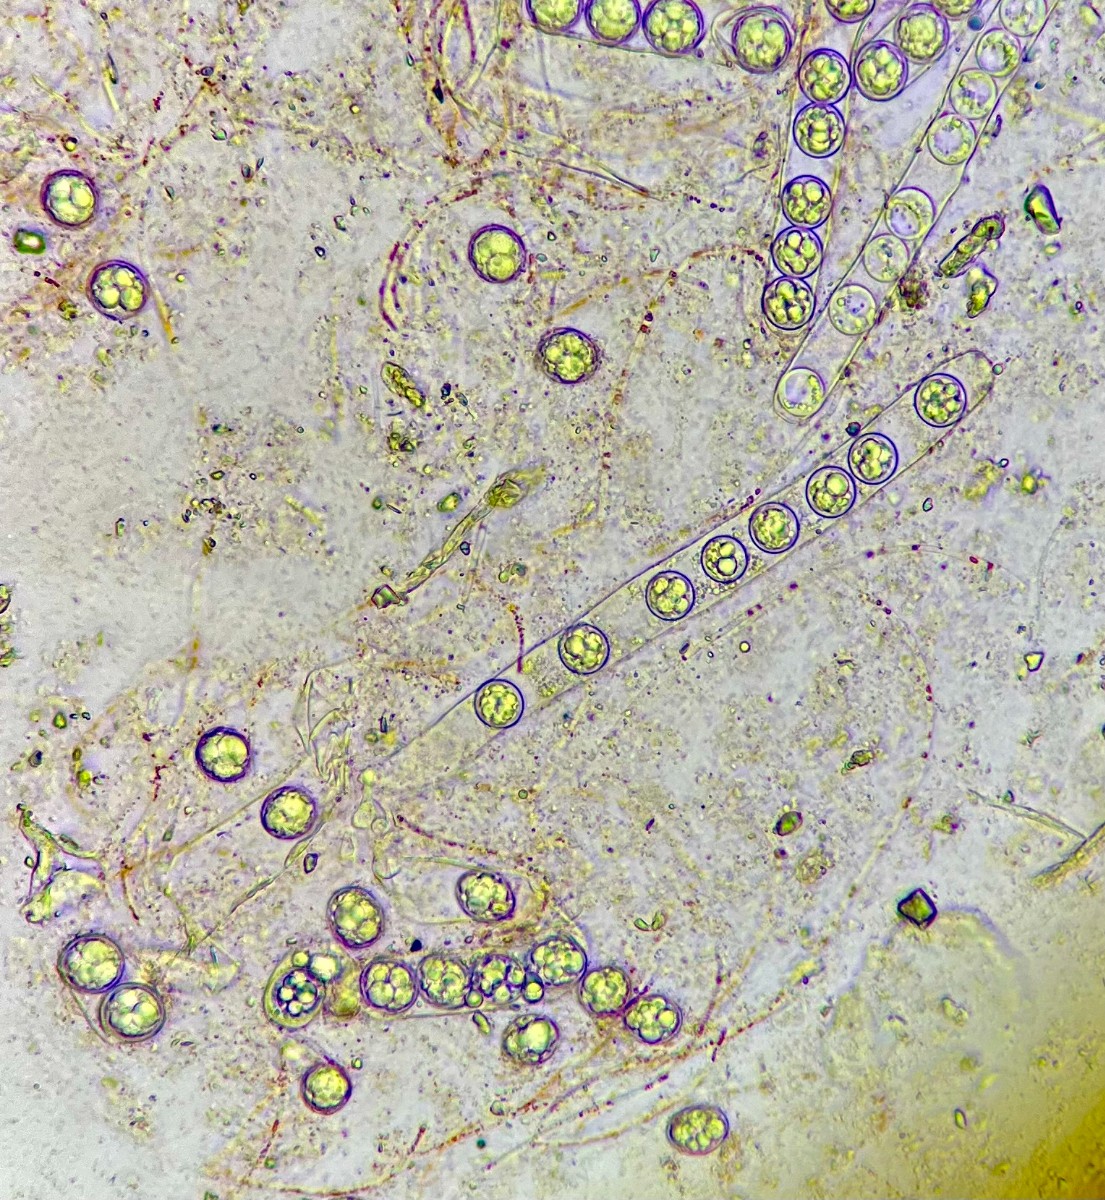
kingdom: Fungi
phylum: Ascomycota
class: Pezizomycetes
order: Pezizales
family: Pulvinulaceae
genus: Pulvinula
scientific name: Pulvinula miltina
